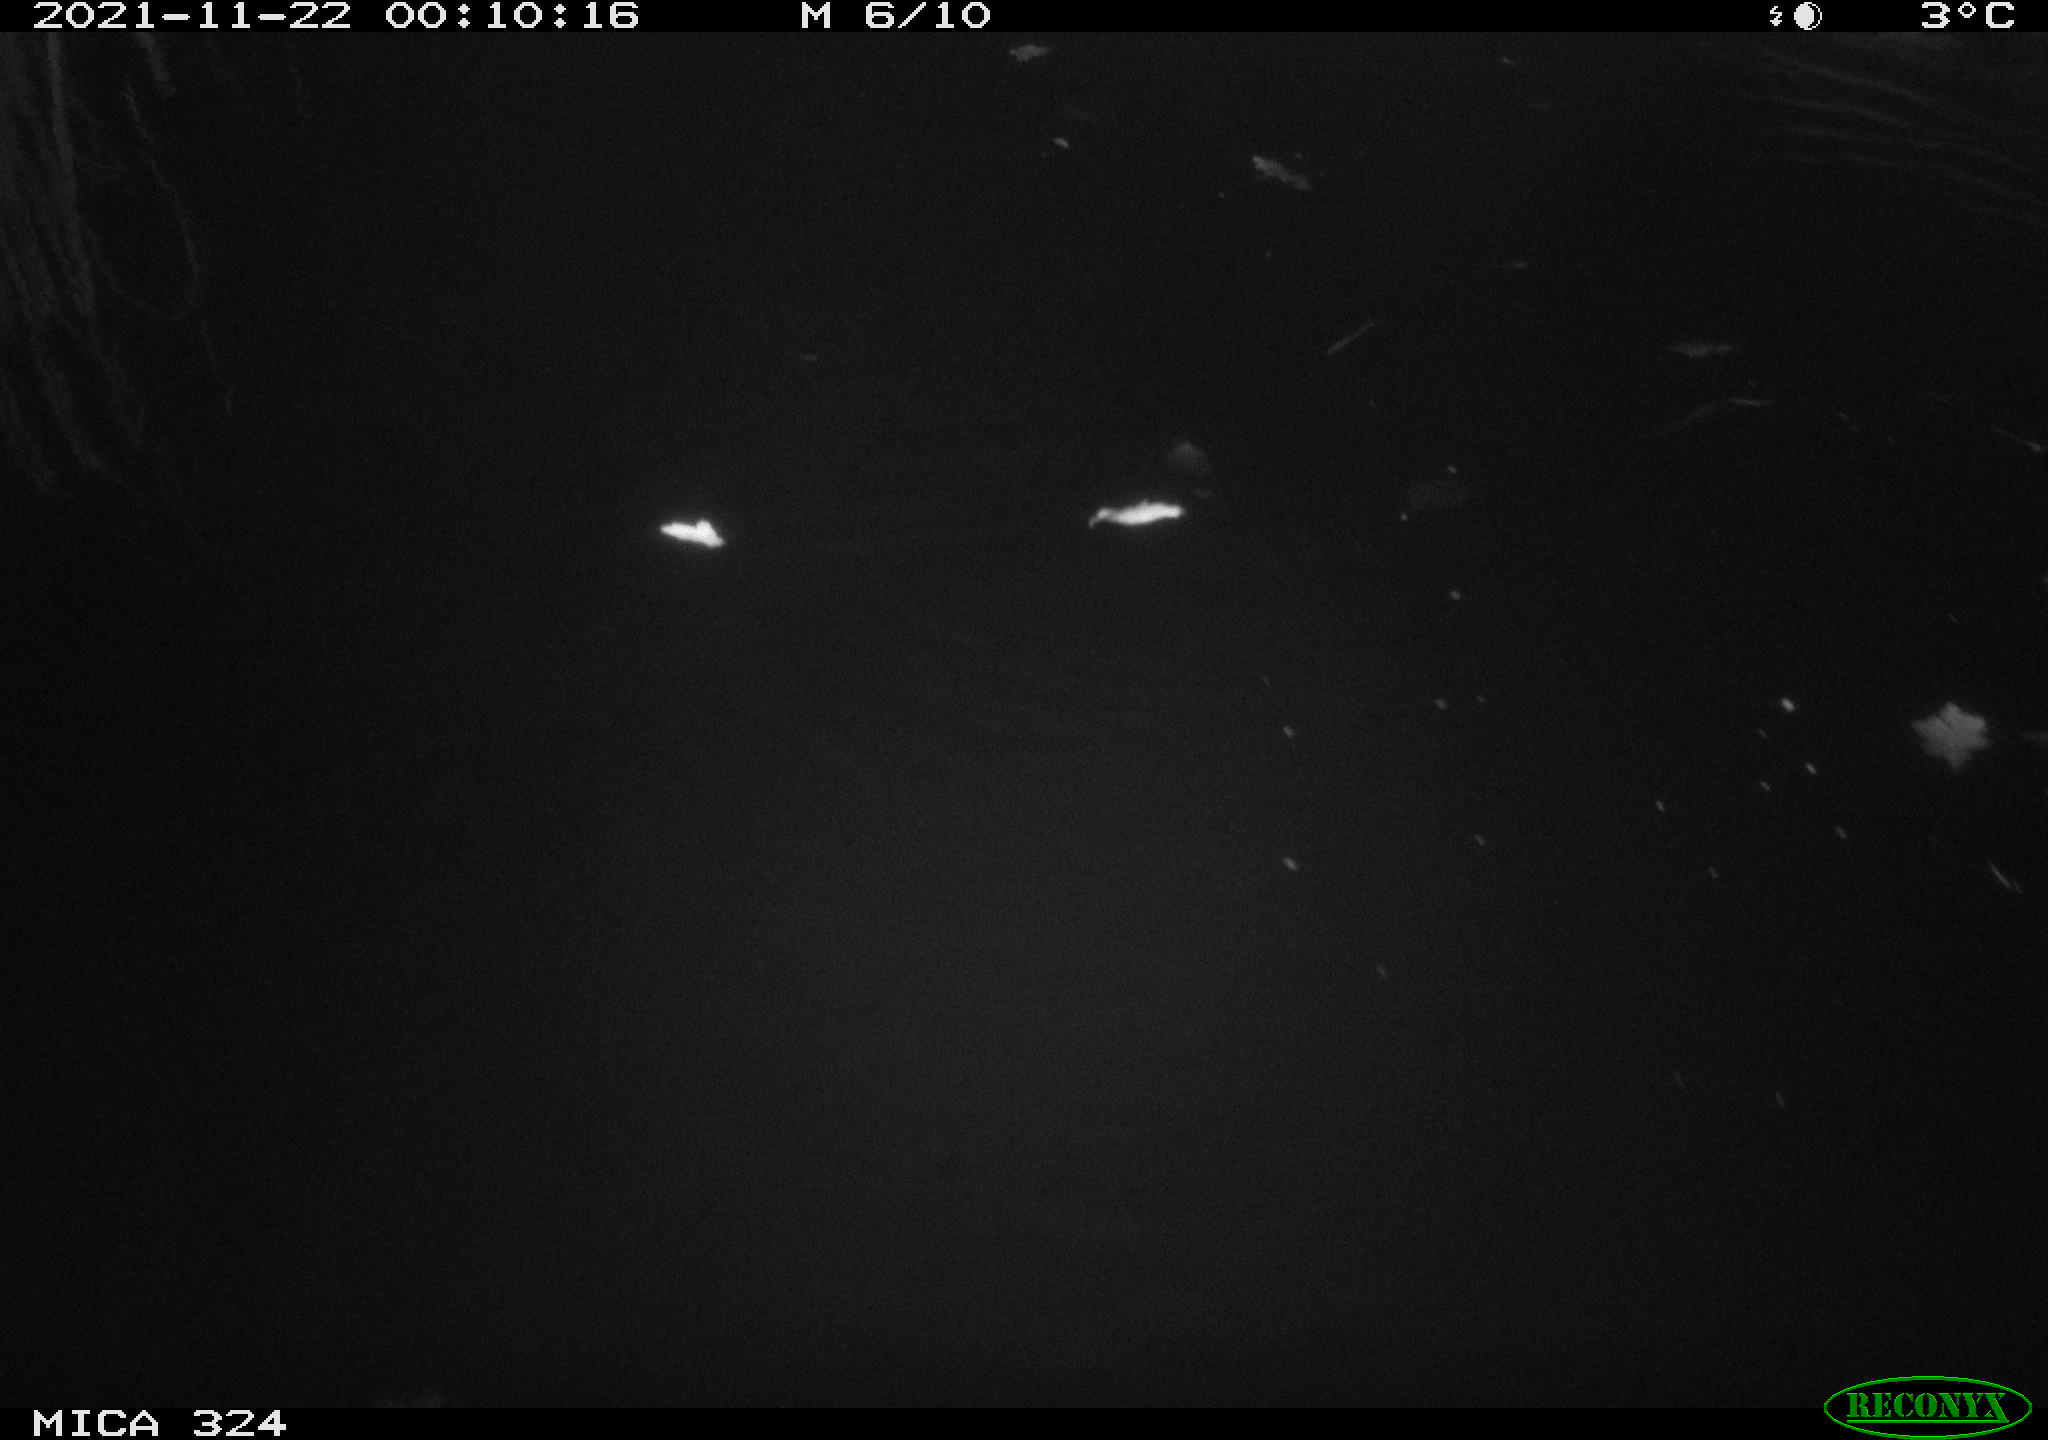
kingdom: Animalia
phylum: Chordata
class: Mammalia
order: Rodentia
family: Cricetidae
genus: Ondatra
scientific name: Ondatra zibethicus
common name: Muskrat
